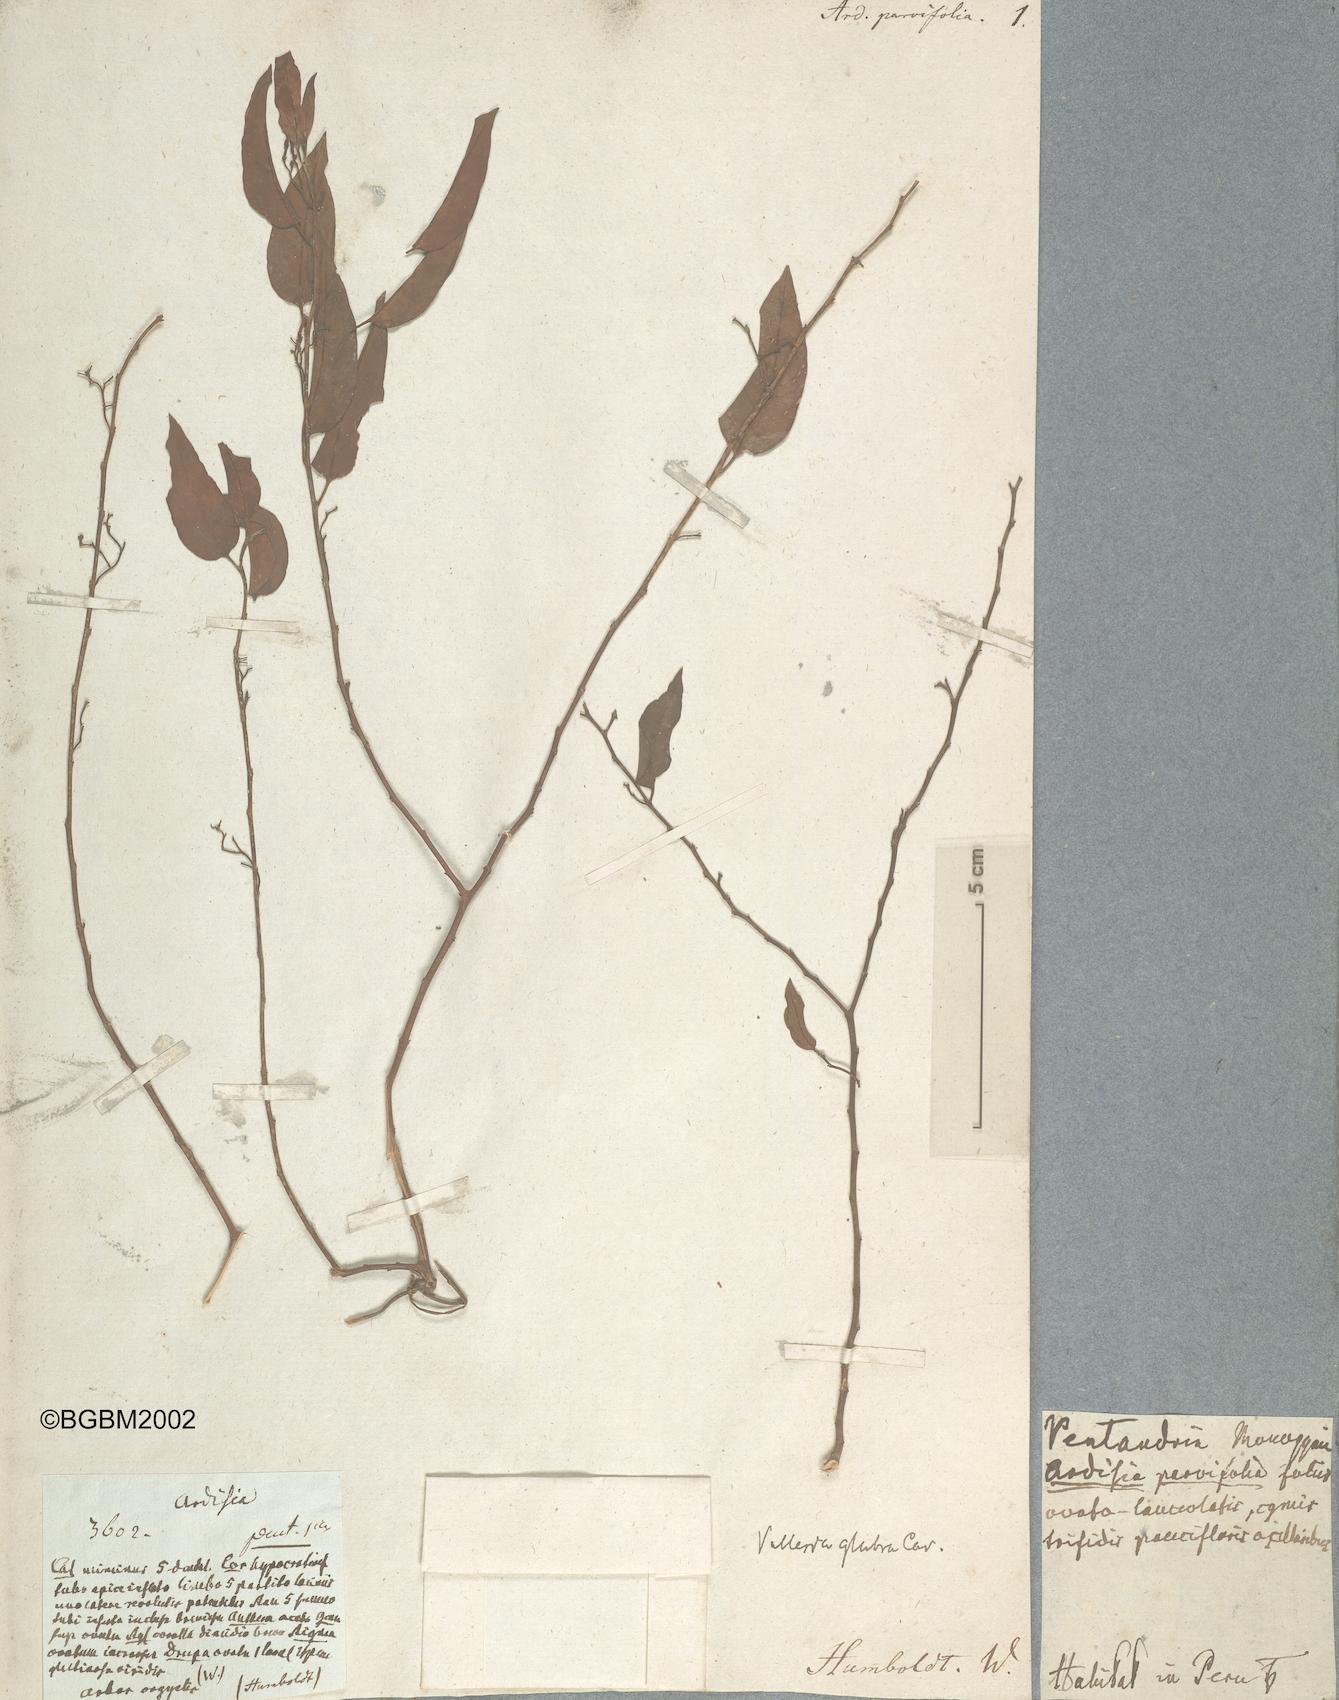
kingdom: Plantae
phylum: Tracheophyta
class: Magnoliopsida
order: Ericales
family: Primulaceae
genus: Ardisia
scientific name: Ardisia parvifolia
